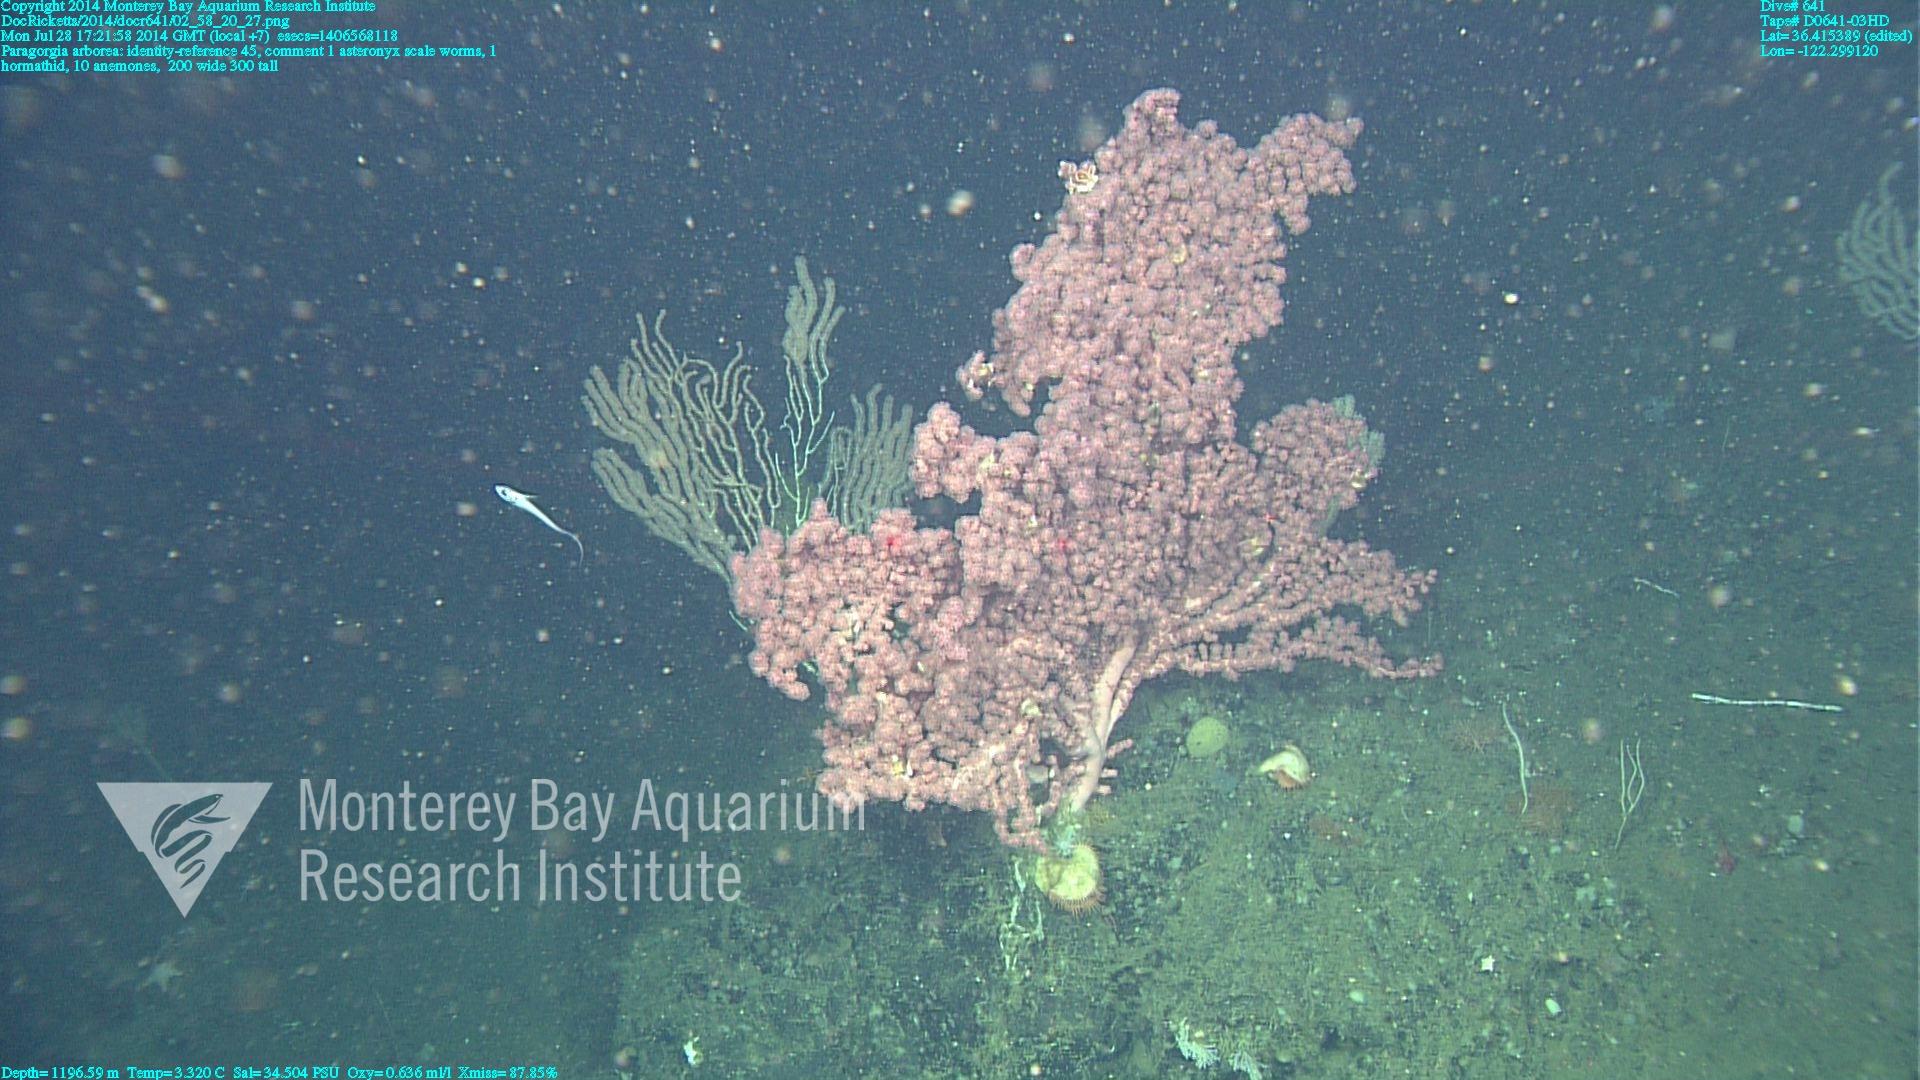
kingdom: Animalia
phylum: Cnidaria
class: Anthozoa
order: Scleralcyonacea
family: Coralliidae
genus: Paragorgia
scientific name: Paragorgia arborea
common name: Bubble gum coral
